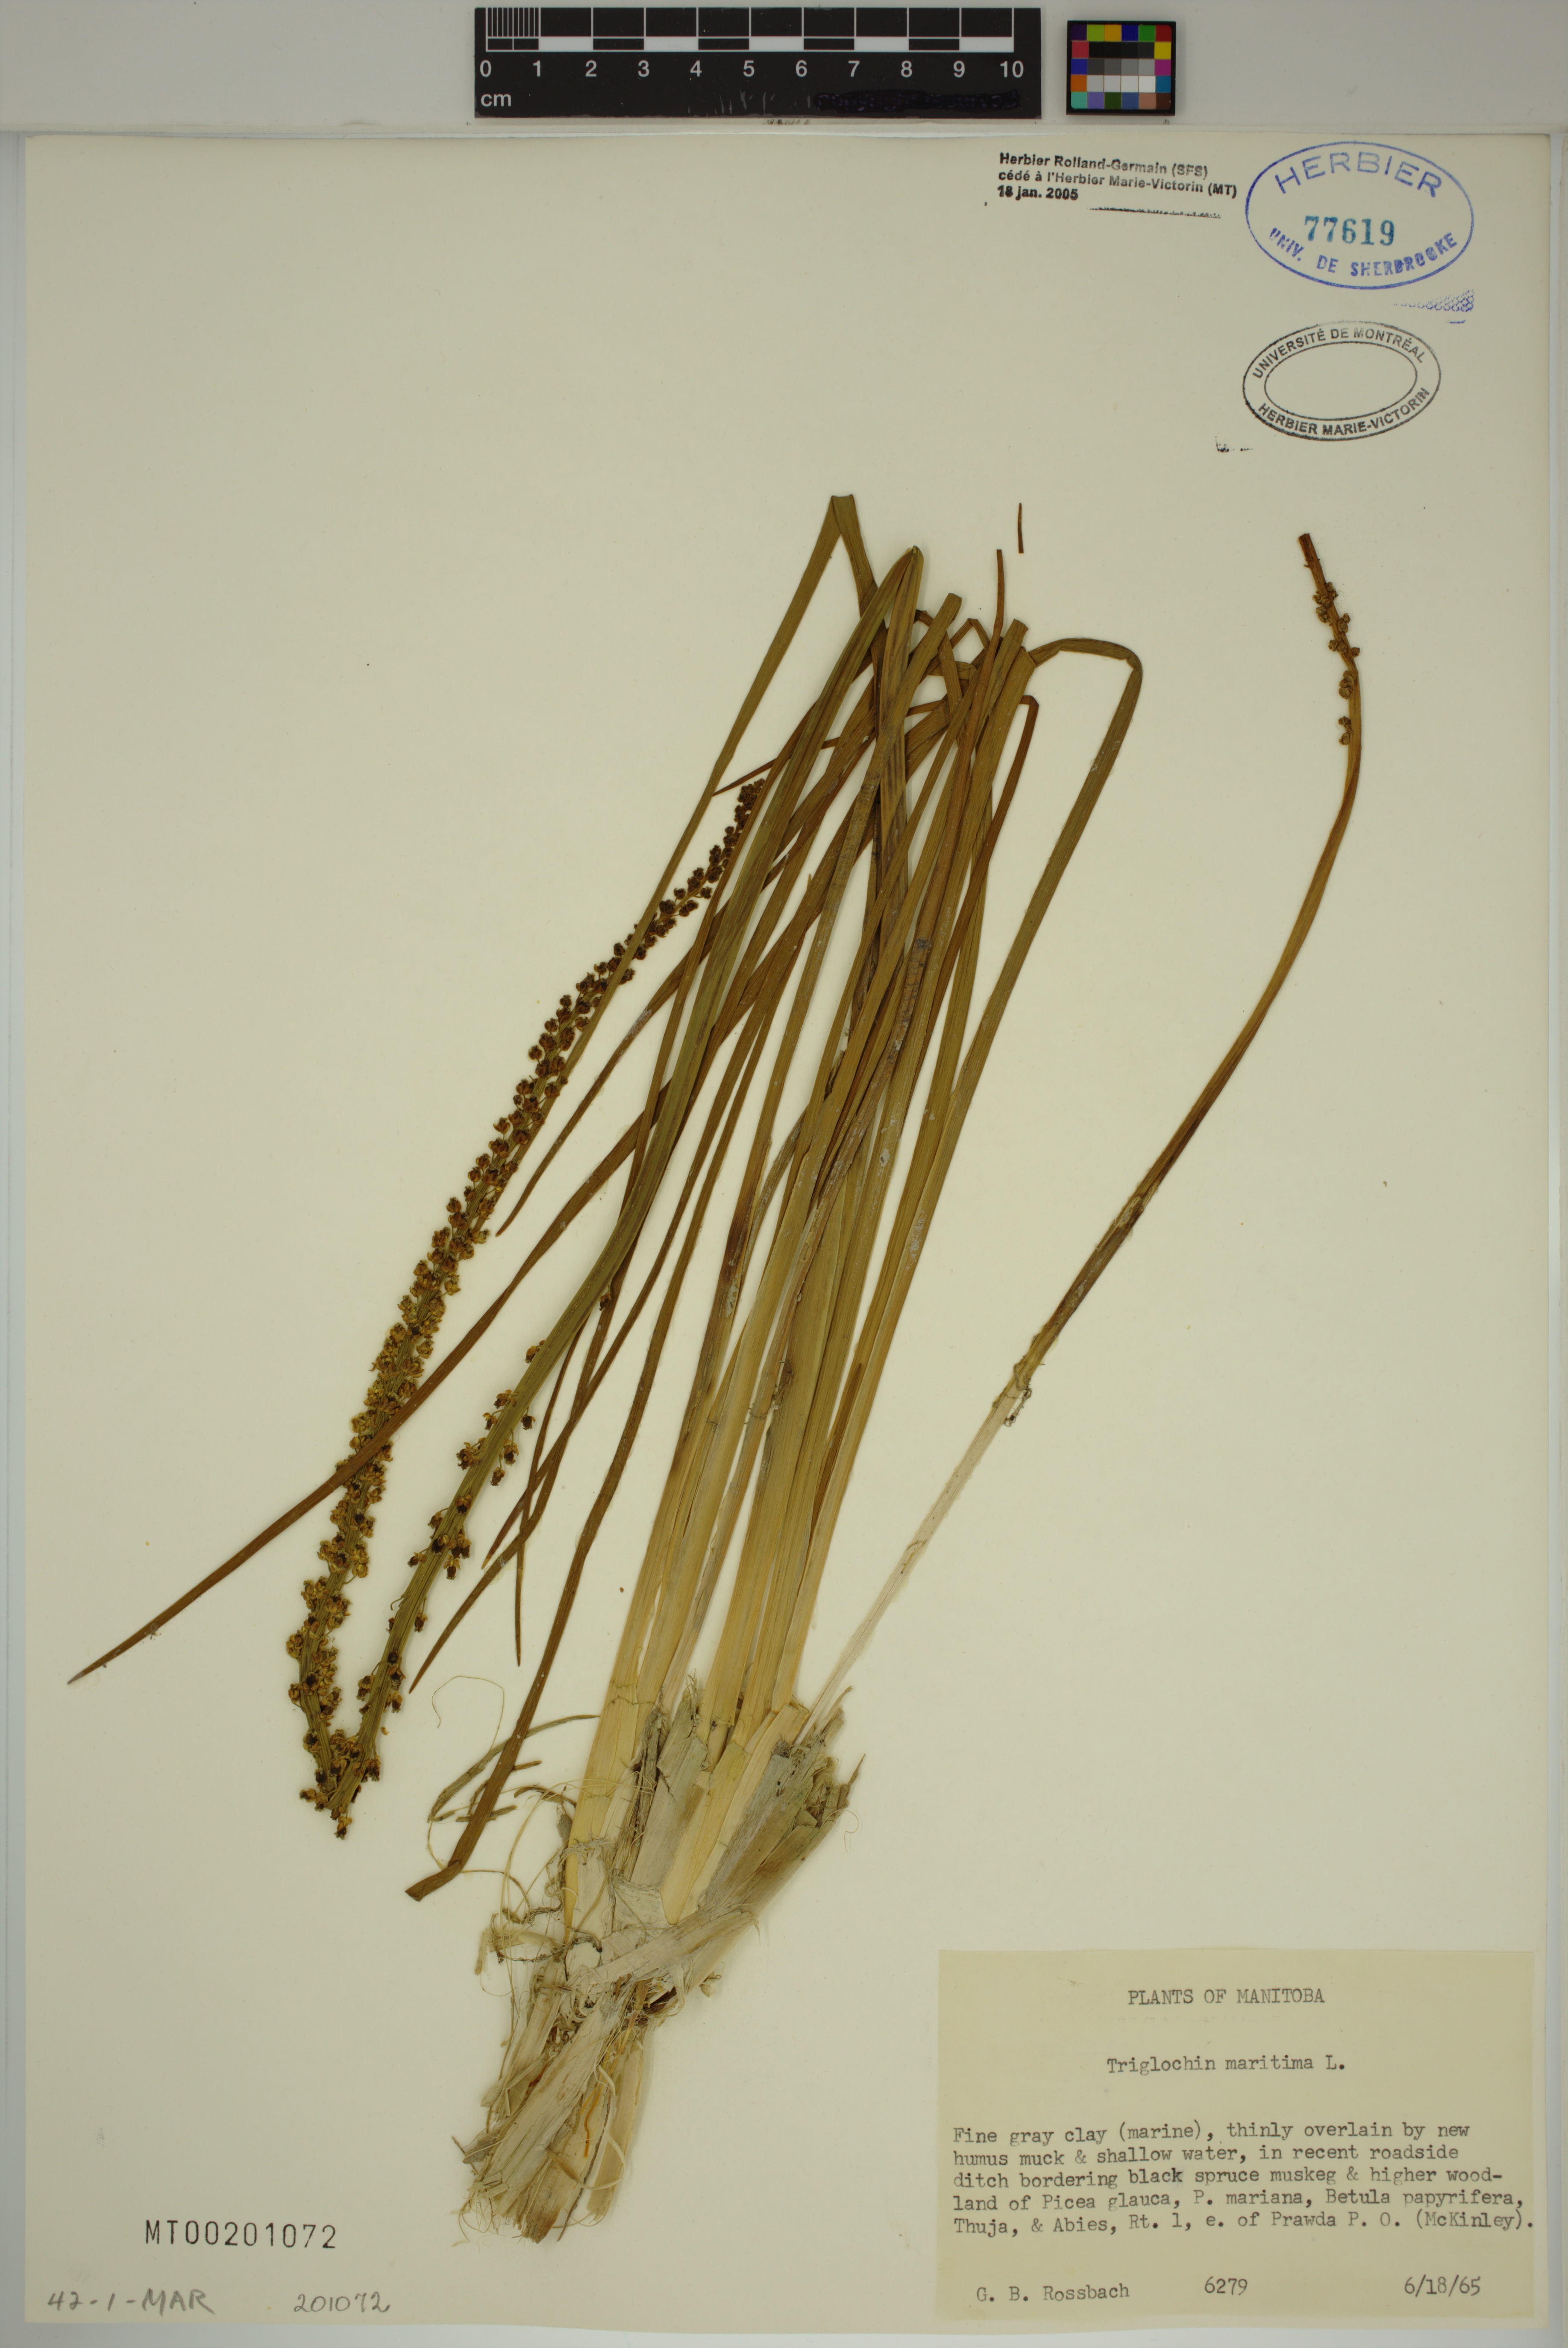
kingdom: Plantae
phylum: Tracheophyta
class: Liliopsida
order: Alismatales
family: Juncaginaceae
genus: Triglochin
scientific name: Triglochin maritima
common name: Sea arrowgrass
